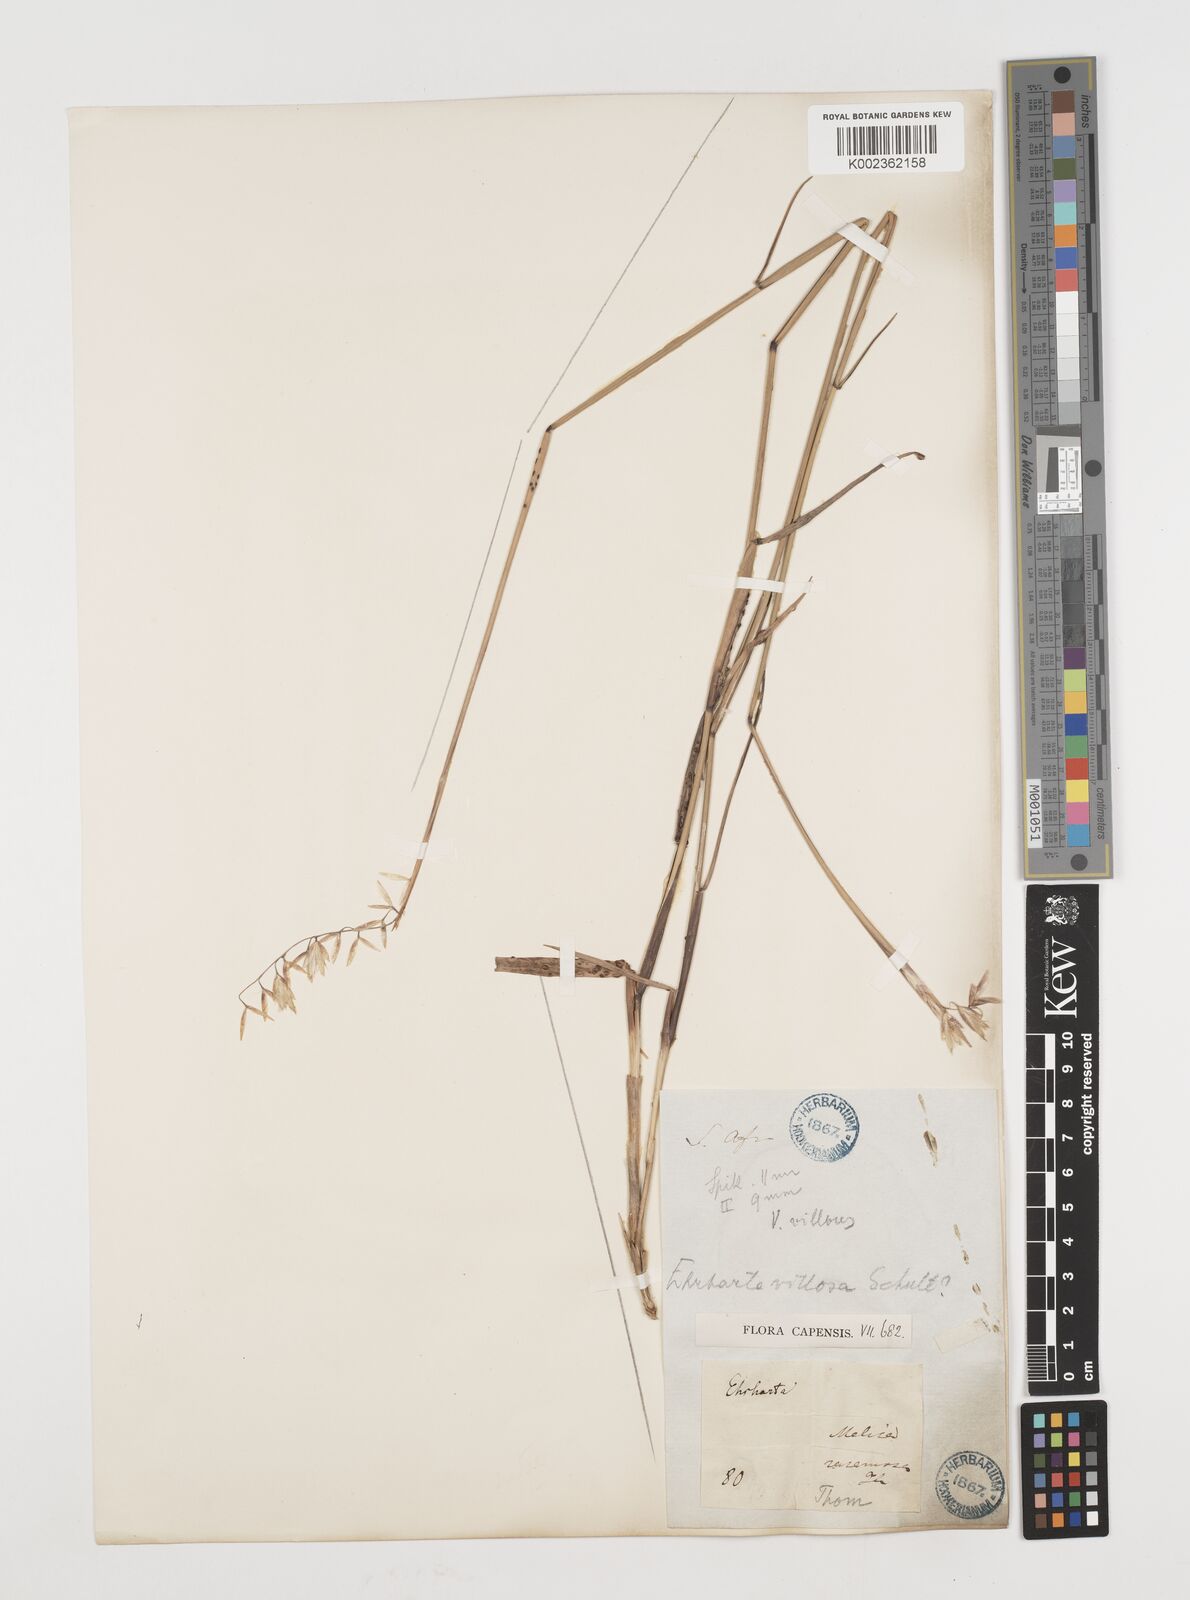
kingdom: Plantae
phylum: Tracheophyta
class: Liliopsida
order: Poales
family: Poaceae
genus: Ehrharta
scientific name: Ehrharta villosa
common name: Pyp grass
